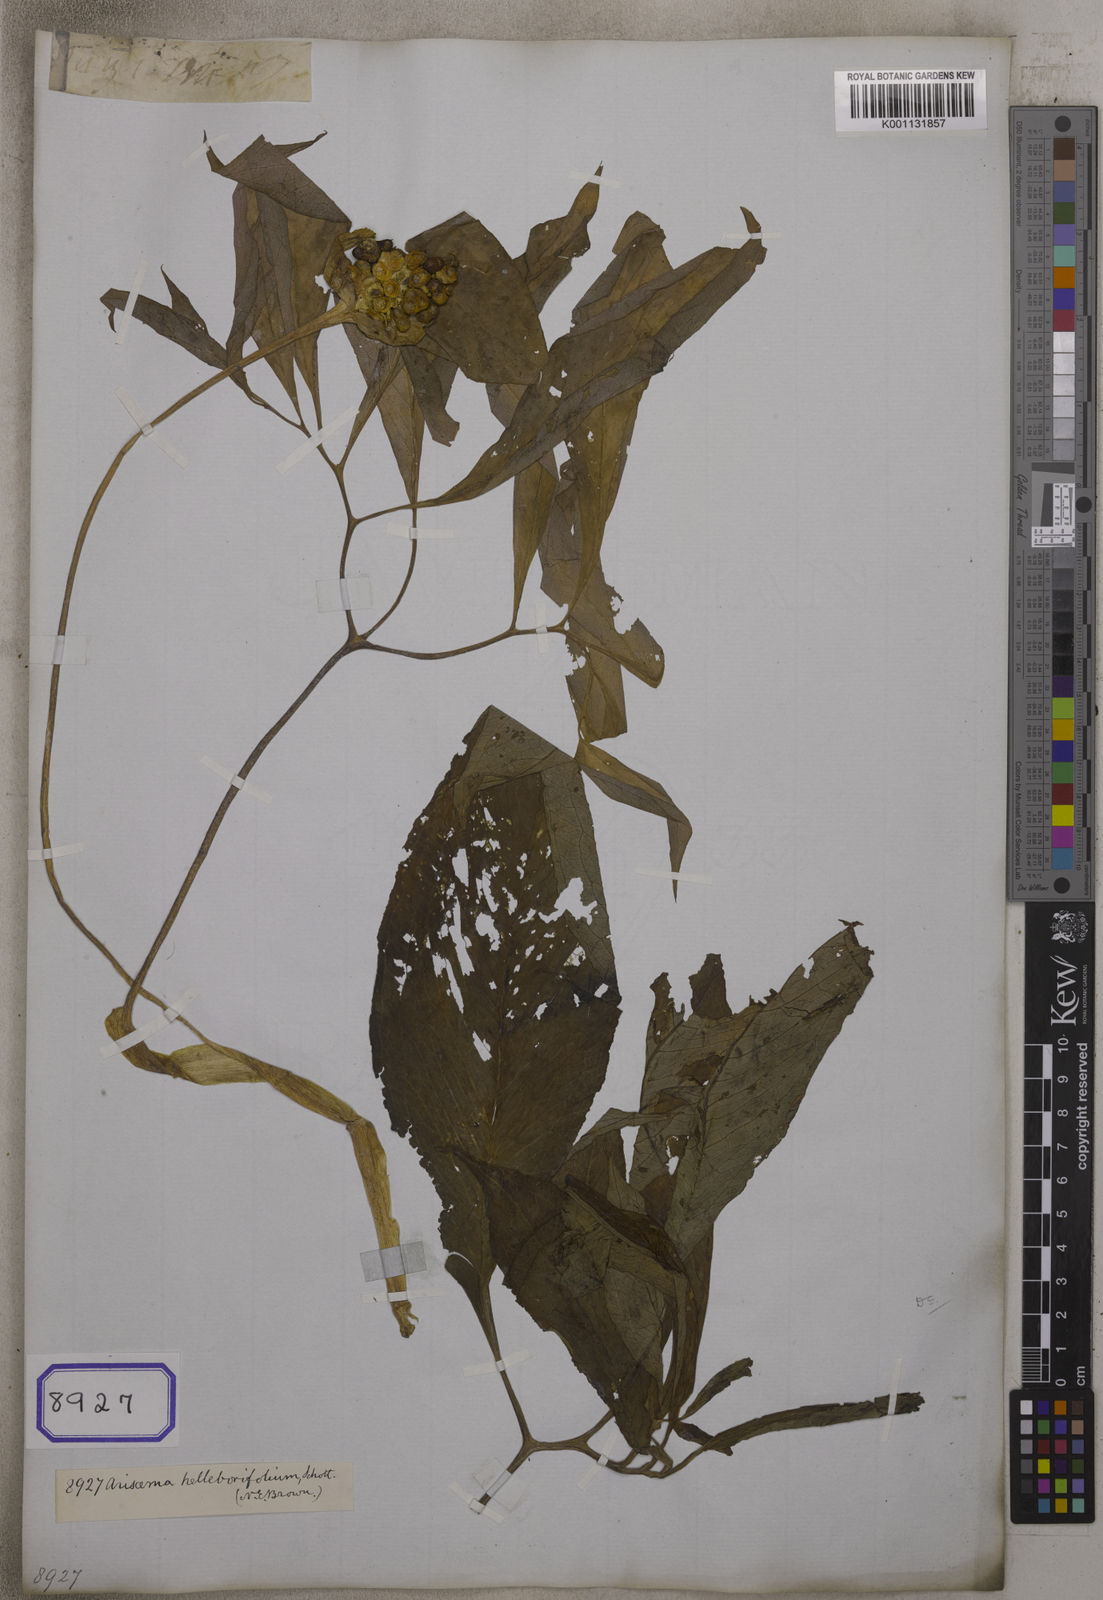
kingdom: Plantae
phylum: Tracheophyta
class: Liliopsida
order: Alismatales
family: Araceae
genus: Arisaema
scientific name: Arisaema
